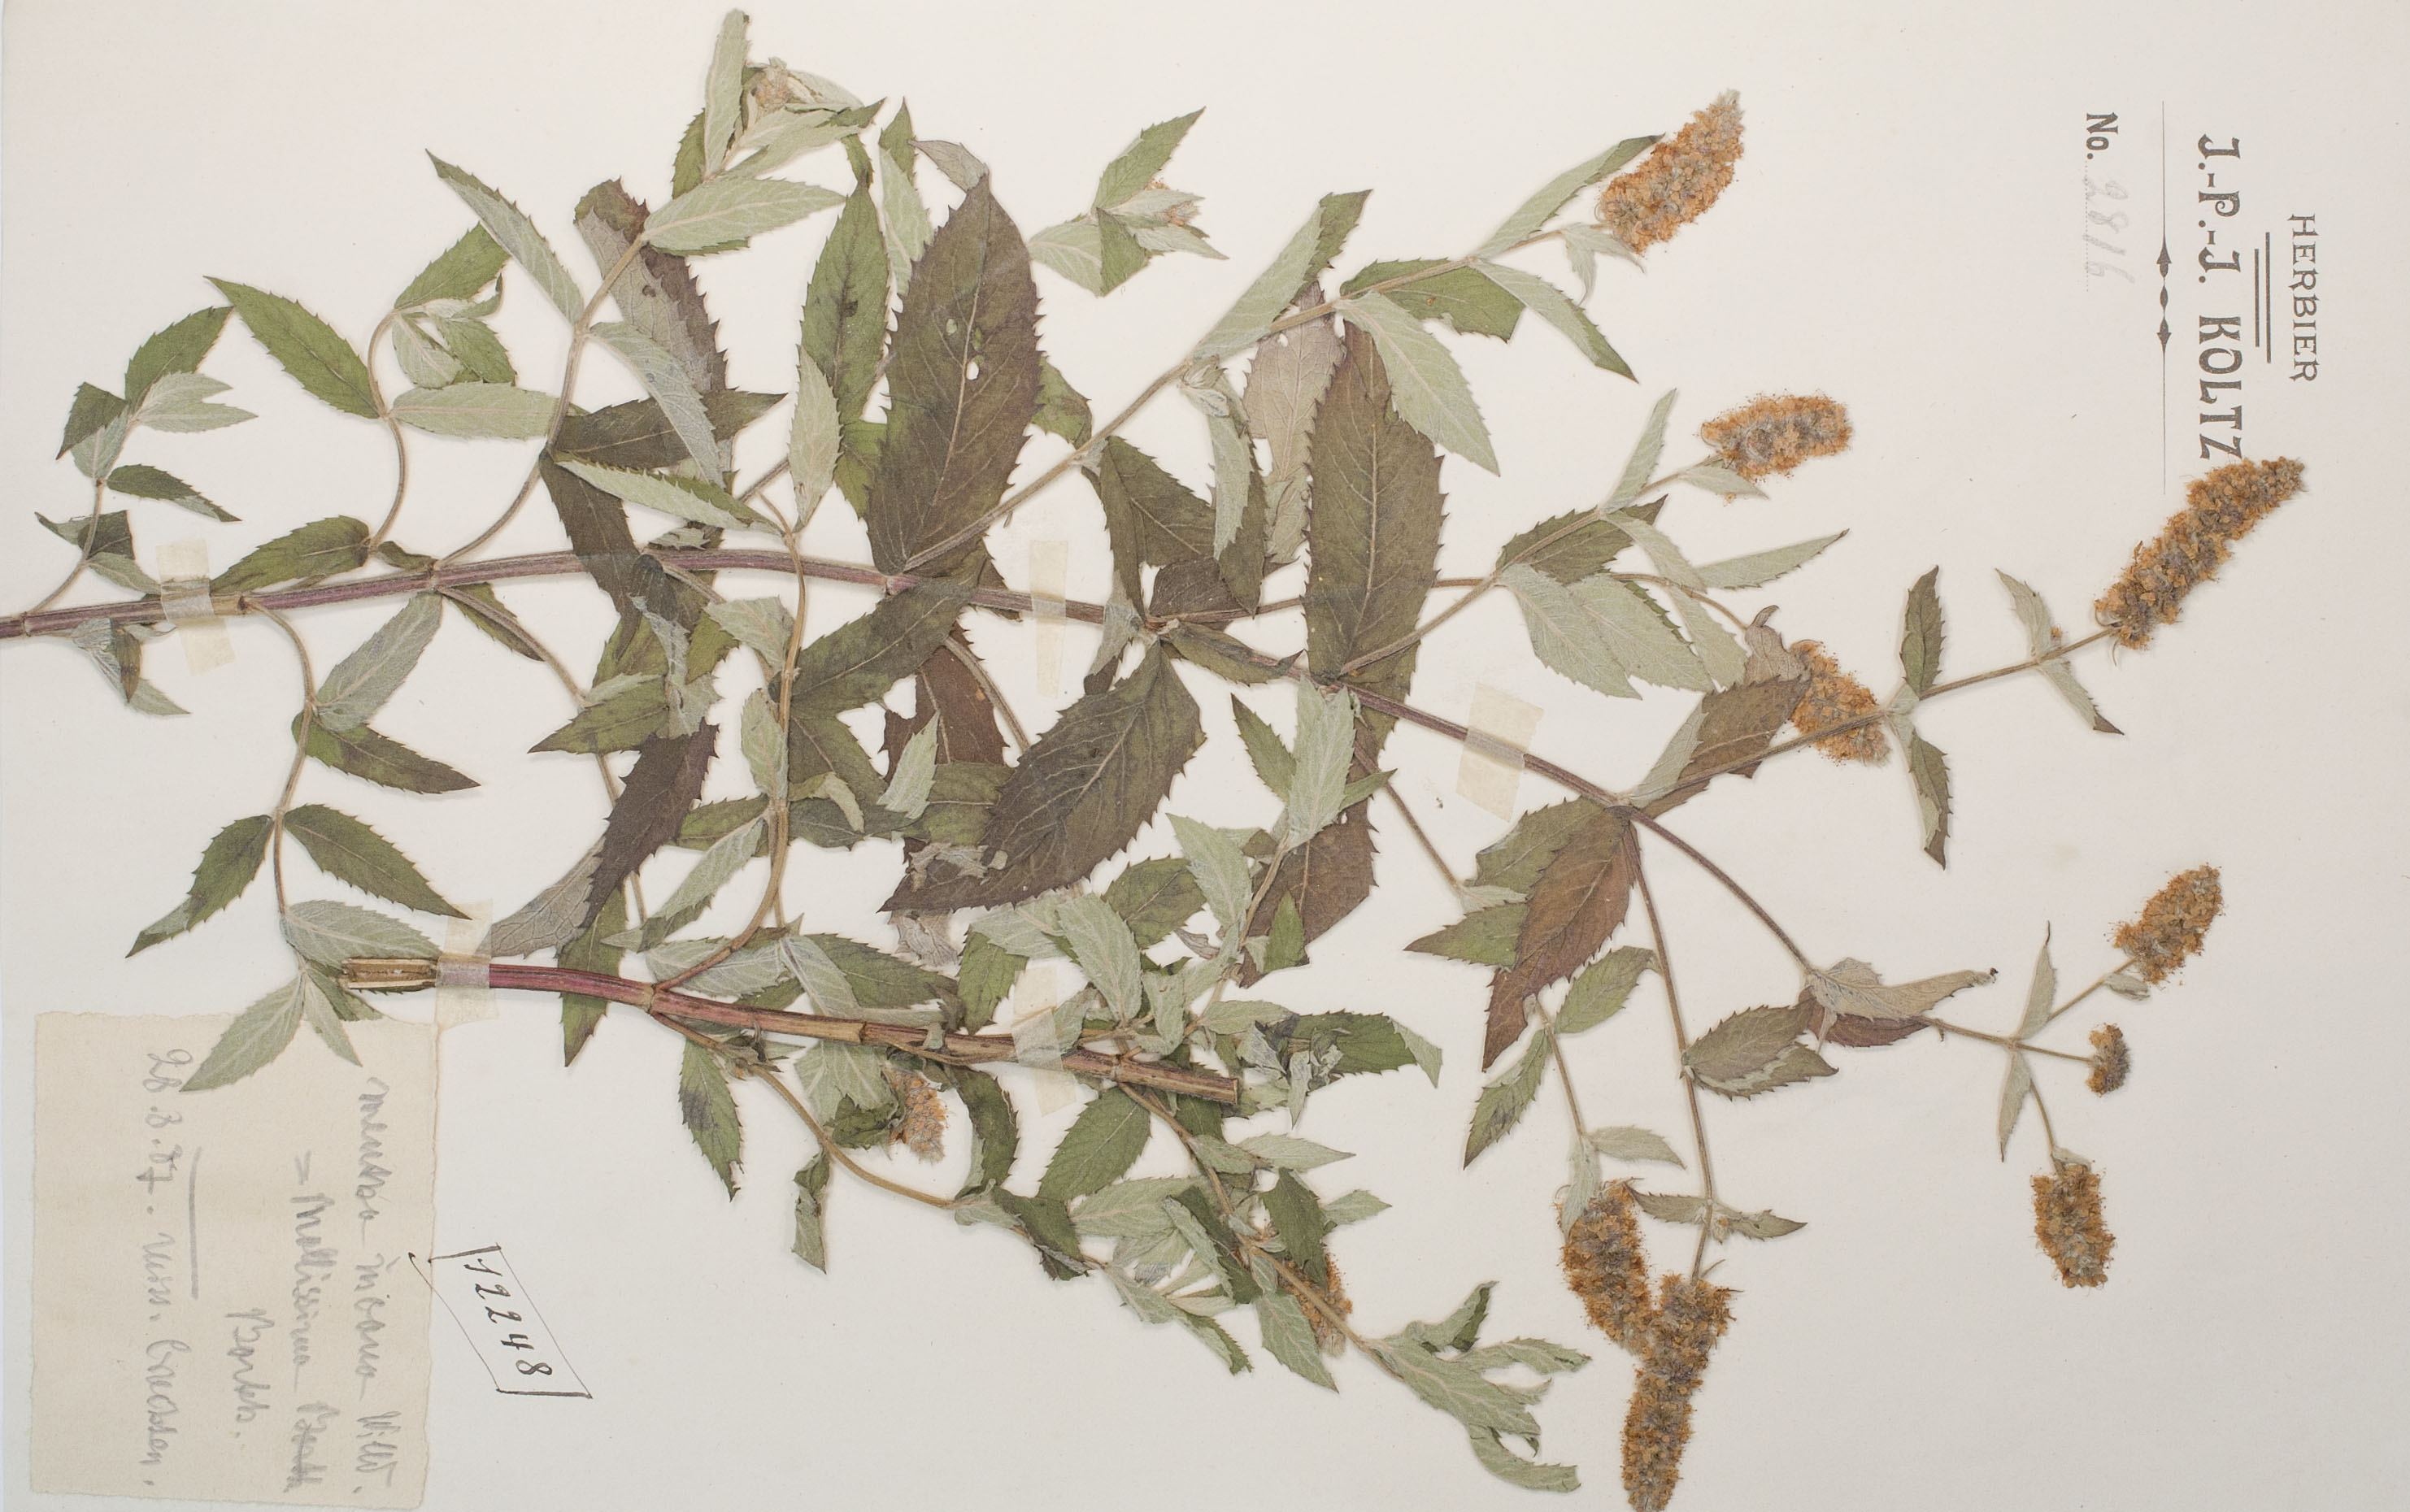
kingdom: Plantae
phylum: Tracheophyta
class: Magnoliopsida
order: Lamiales
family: Lamiaceae
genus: Mentha
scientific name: Mentha longifolia
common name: Horse mint
